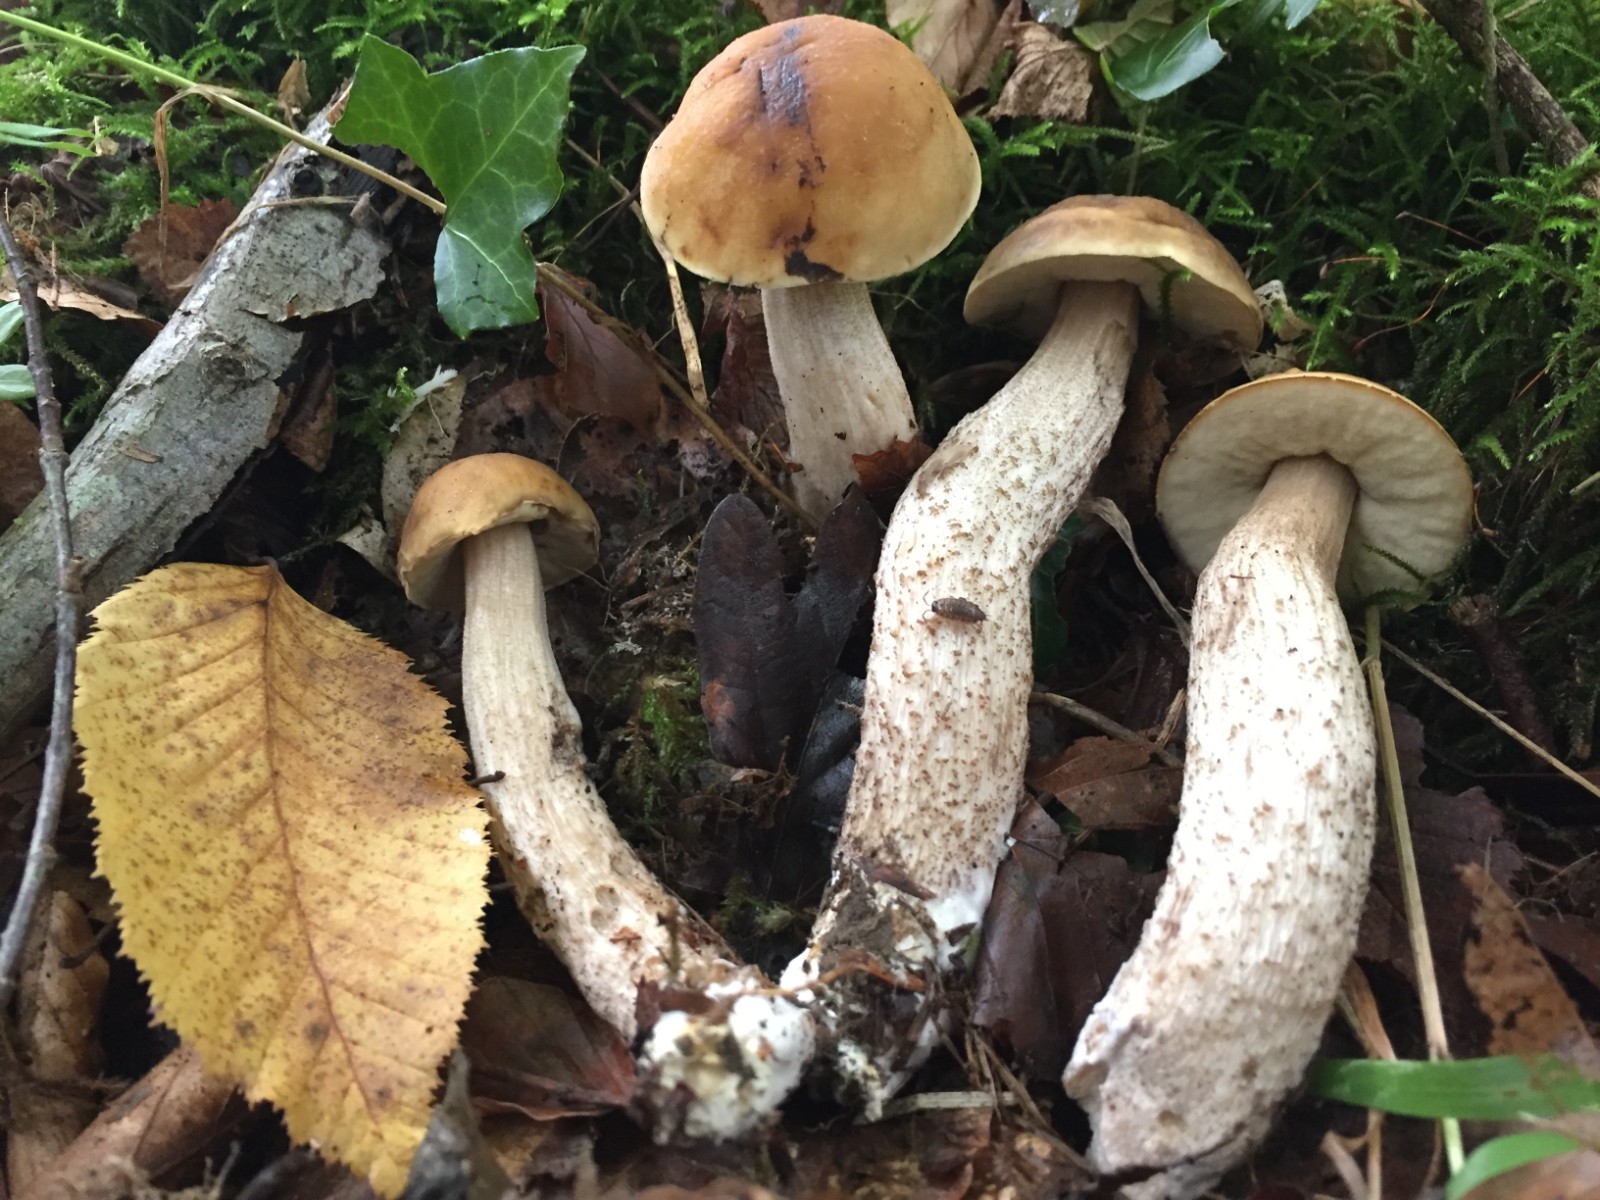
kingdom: Fungi
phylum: Basidiomycota
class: Agaricomycetes
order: Boletales
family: Boletaceae
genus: Leccinellum
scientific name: Leccinellum pseudoscabrum
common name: avnbøg-skælrørhat
